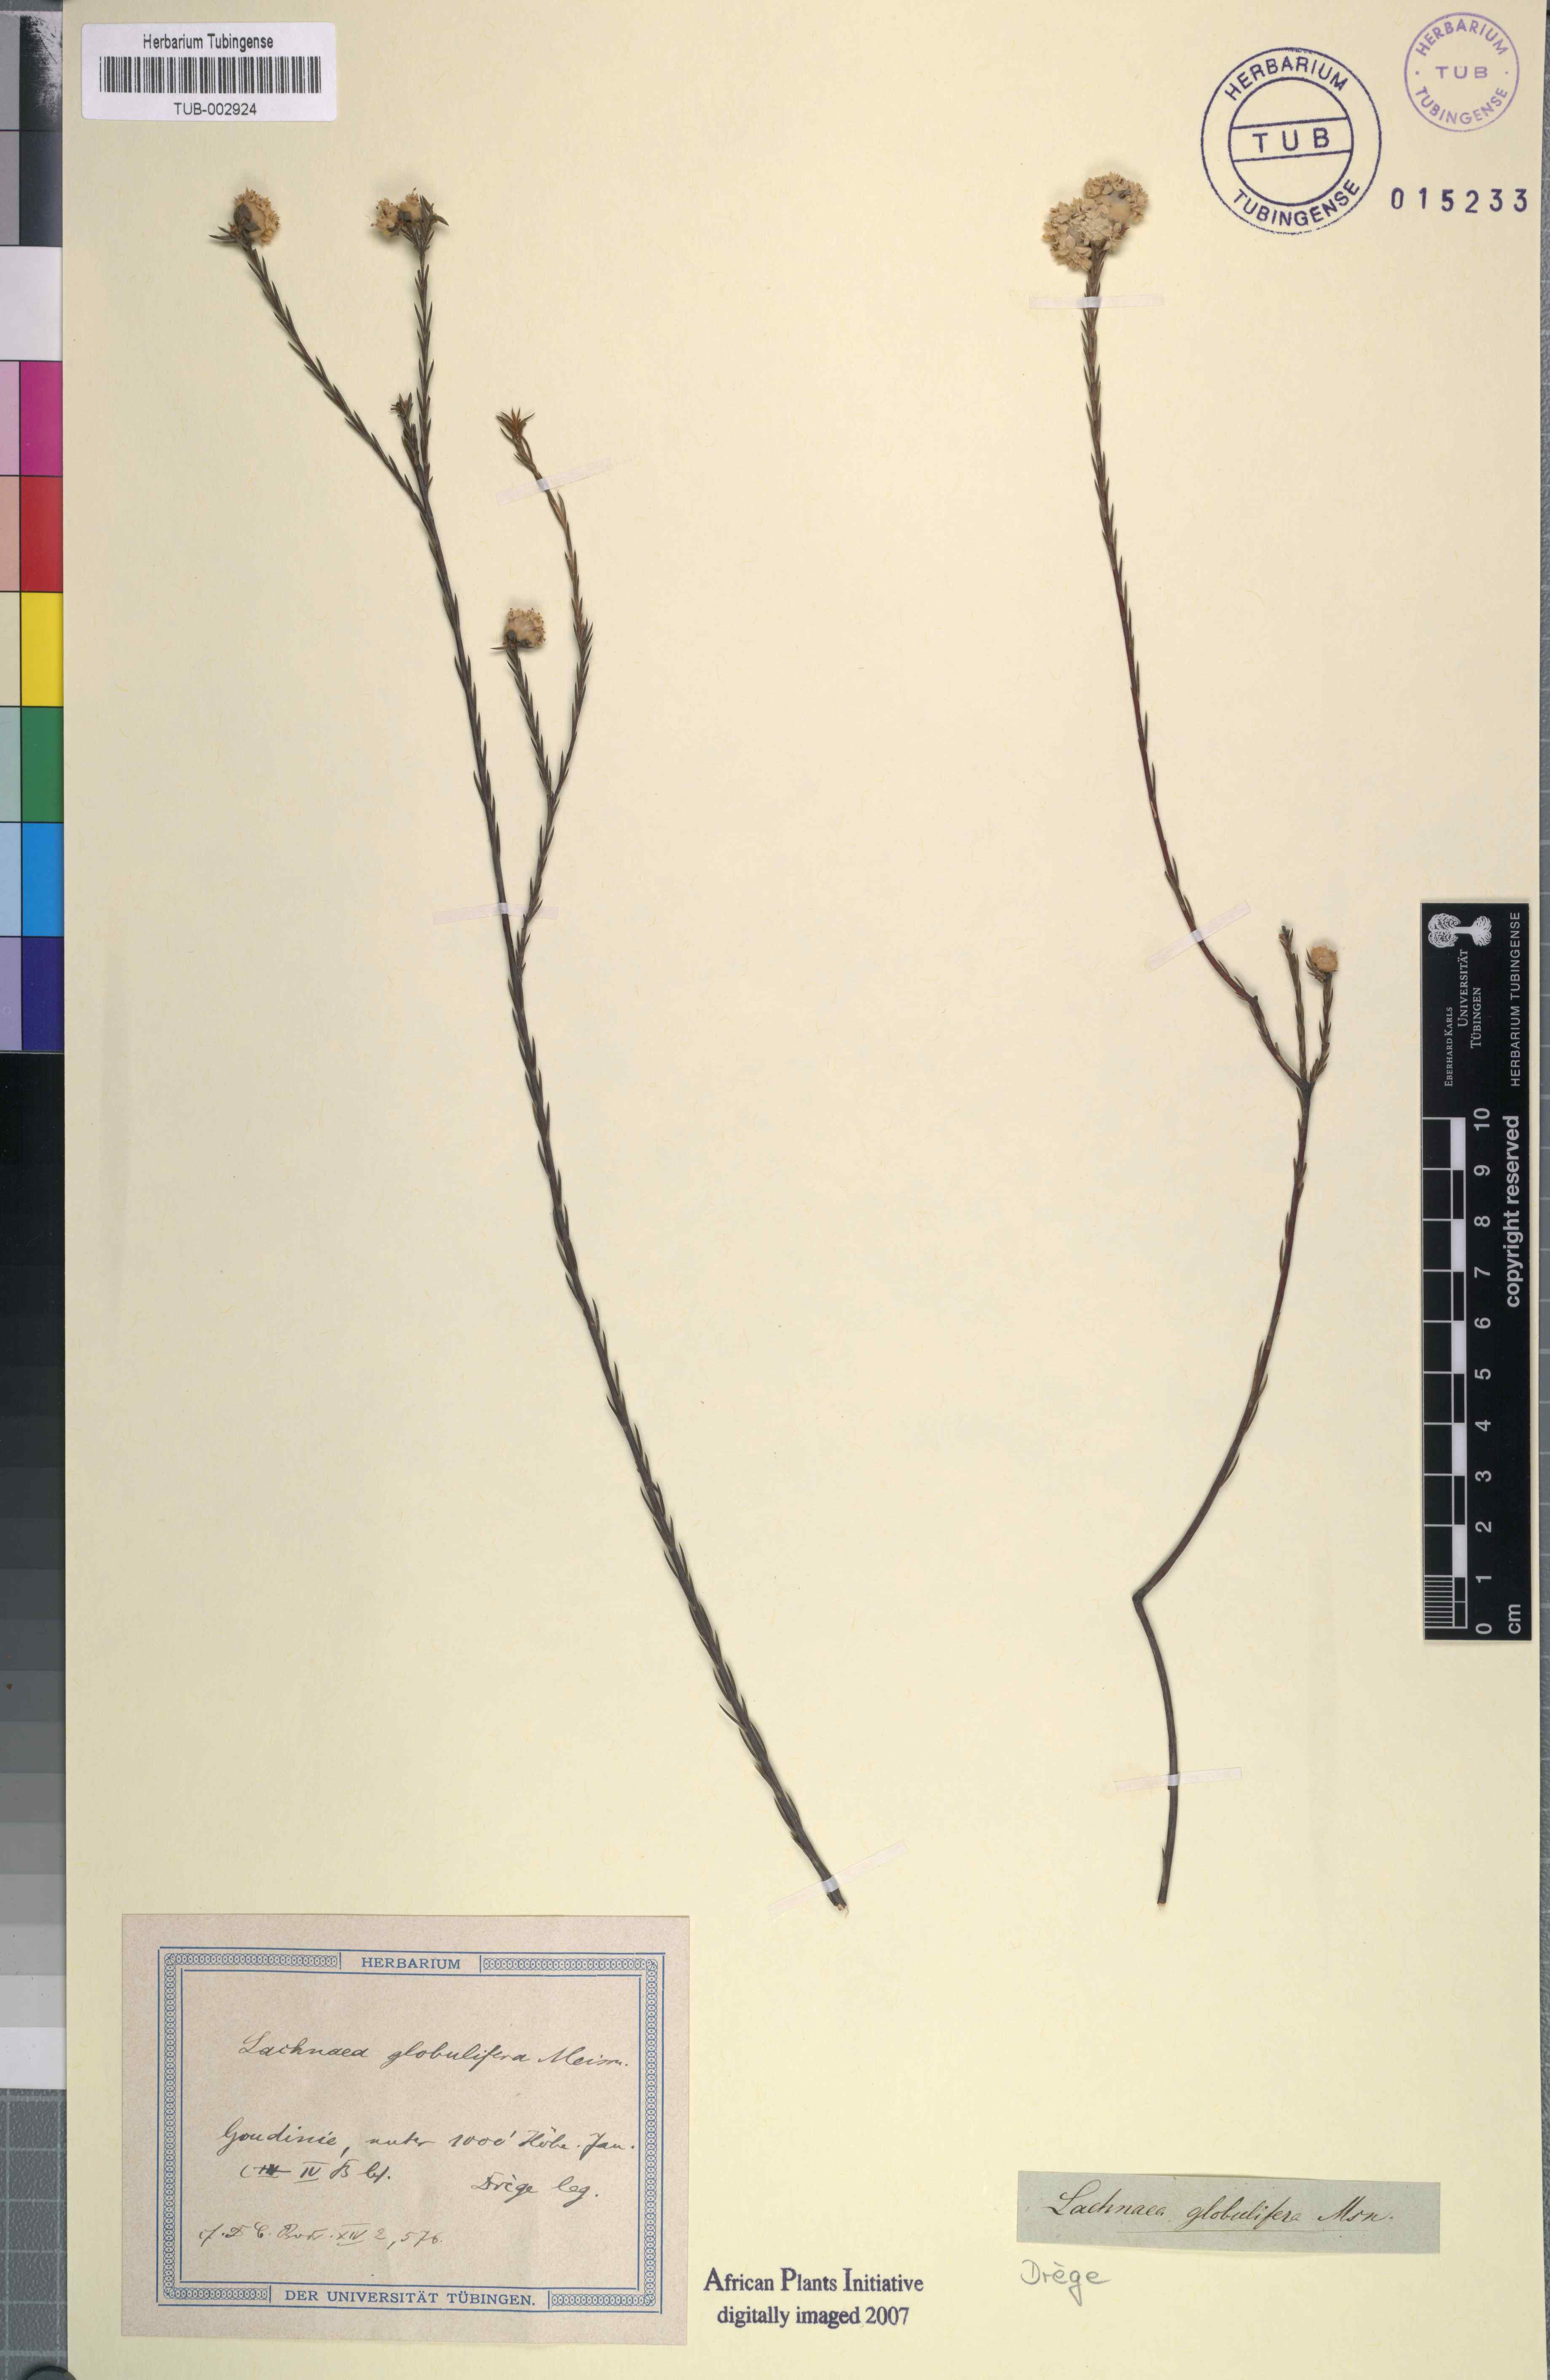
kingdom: Plantae
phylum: Tracheophyta
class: Magnoliopsida
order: Malvales
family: Thymelaeaceae
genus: Lachnaea
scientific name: Lachnaea globulifera
